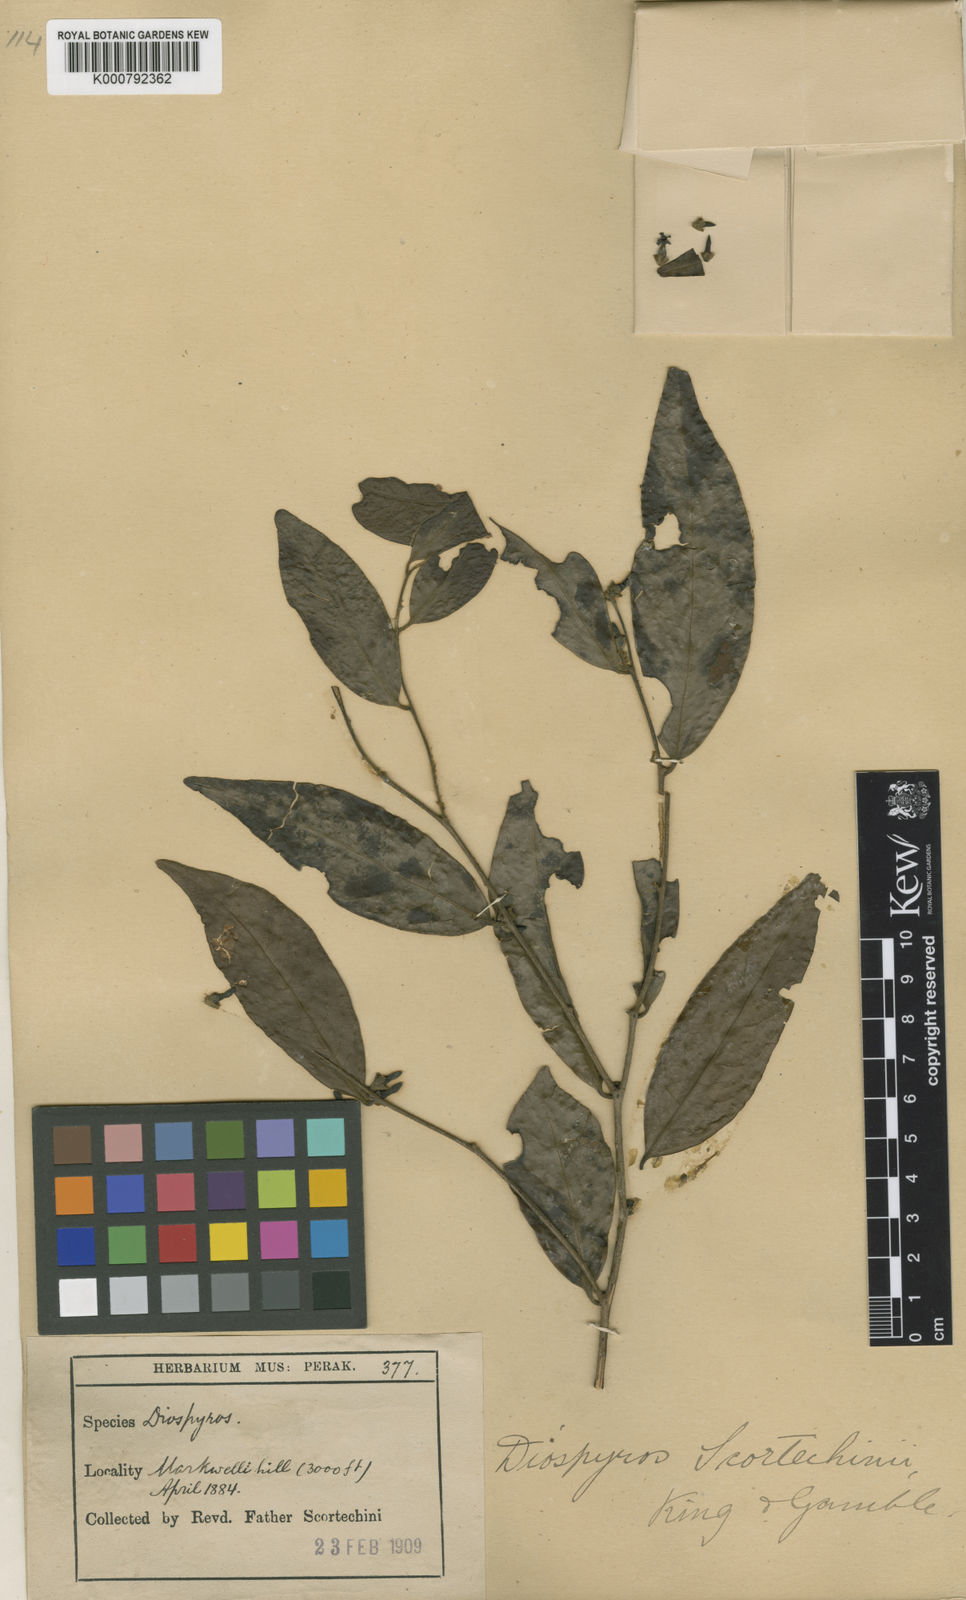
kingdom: Plantae
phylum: Tracheophyta
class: Magnoliopsida
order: Ericales
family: Ebenaceae
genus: Diospyros
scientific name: Diospyros scortechinii
